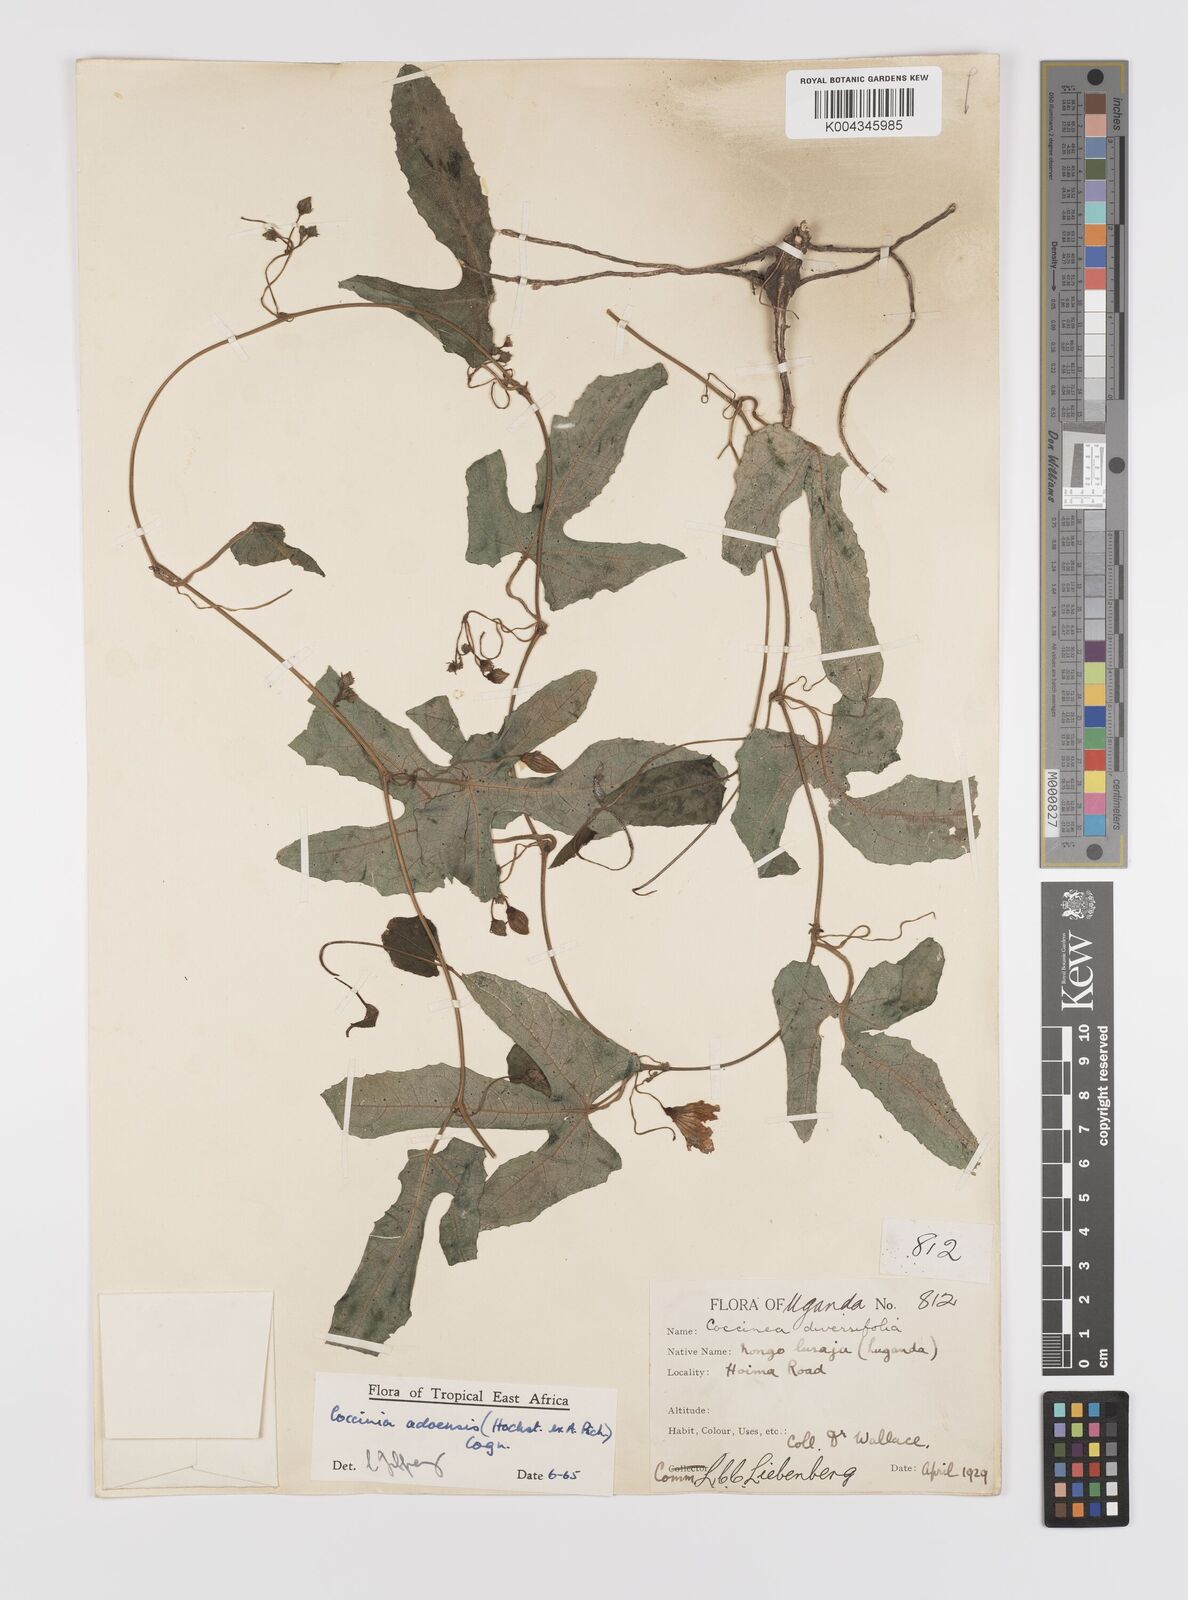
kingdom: Plantae
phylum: Tracheophyta
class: Magnoliopsida
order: Cucurbitales
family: Cucurbitaceae
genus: Coccinia
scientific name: Coccinia adoensis
